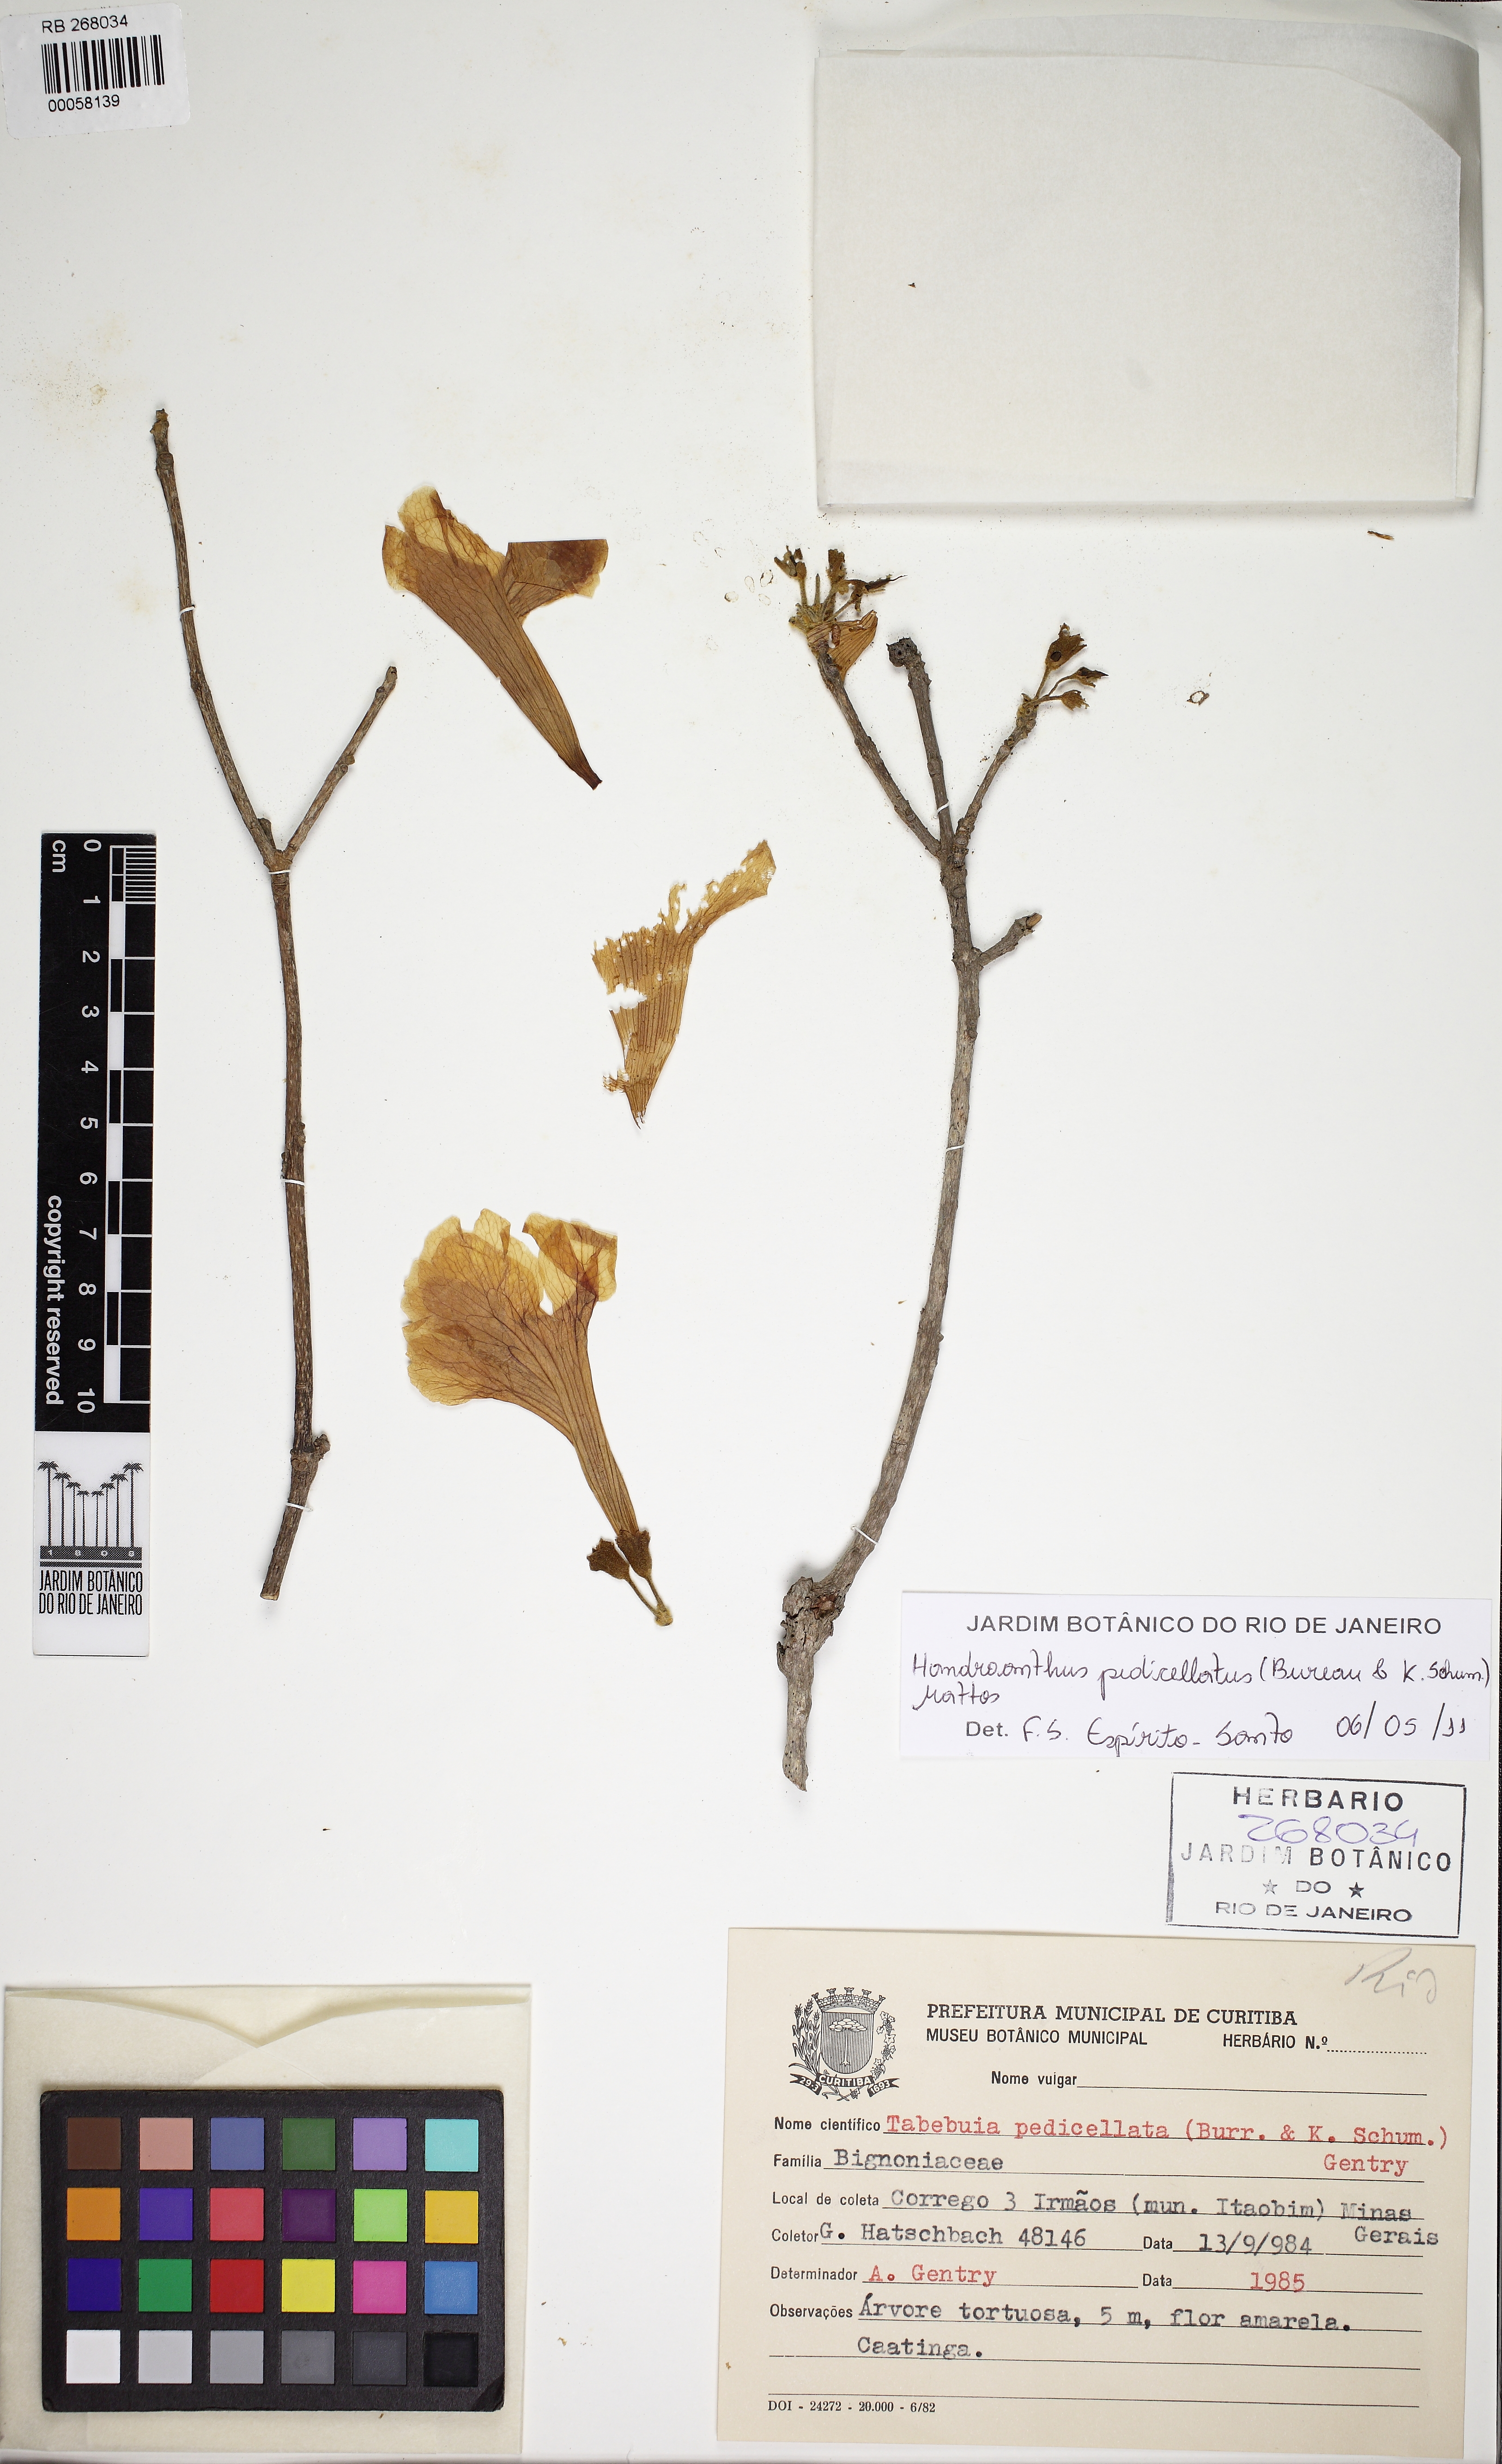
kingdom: Plantae
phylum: Tracheophyta
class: Magnoliopsida
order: Lamiales
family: Bignoniaceae
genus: Handroanthus
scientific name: Handroanthus pedicellatus
